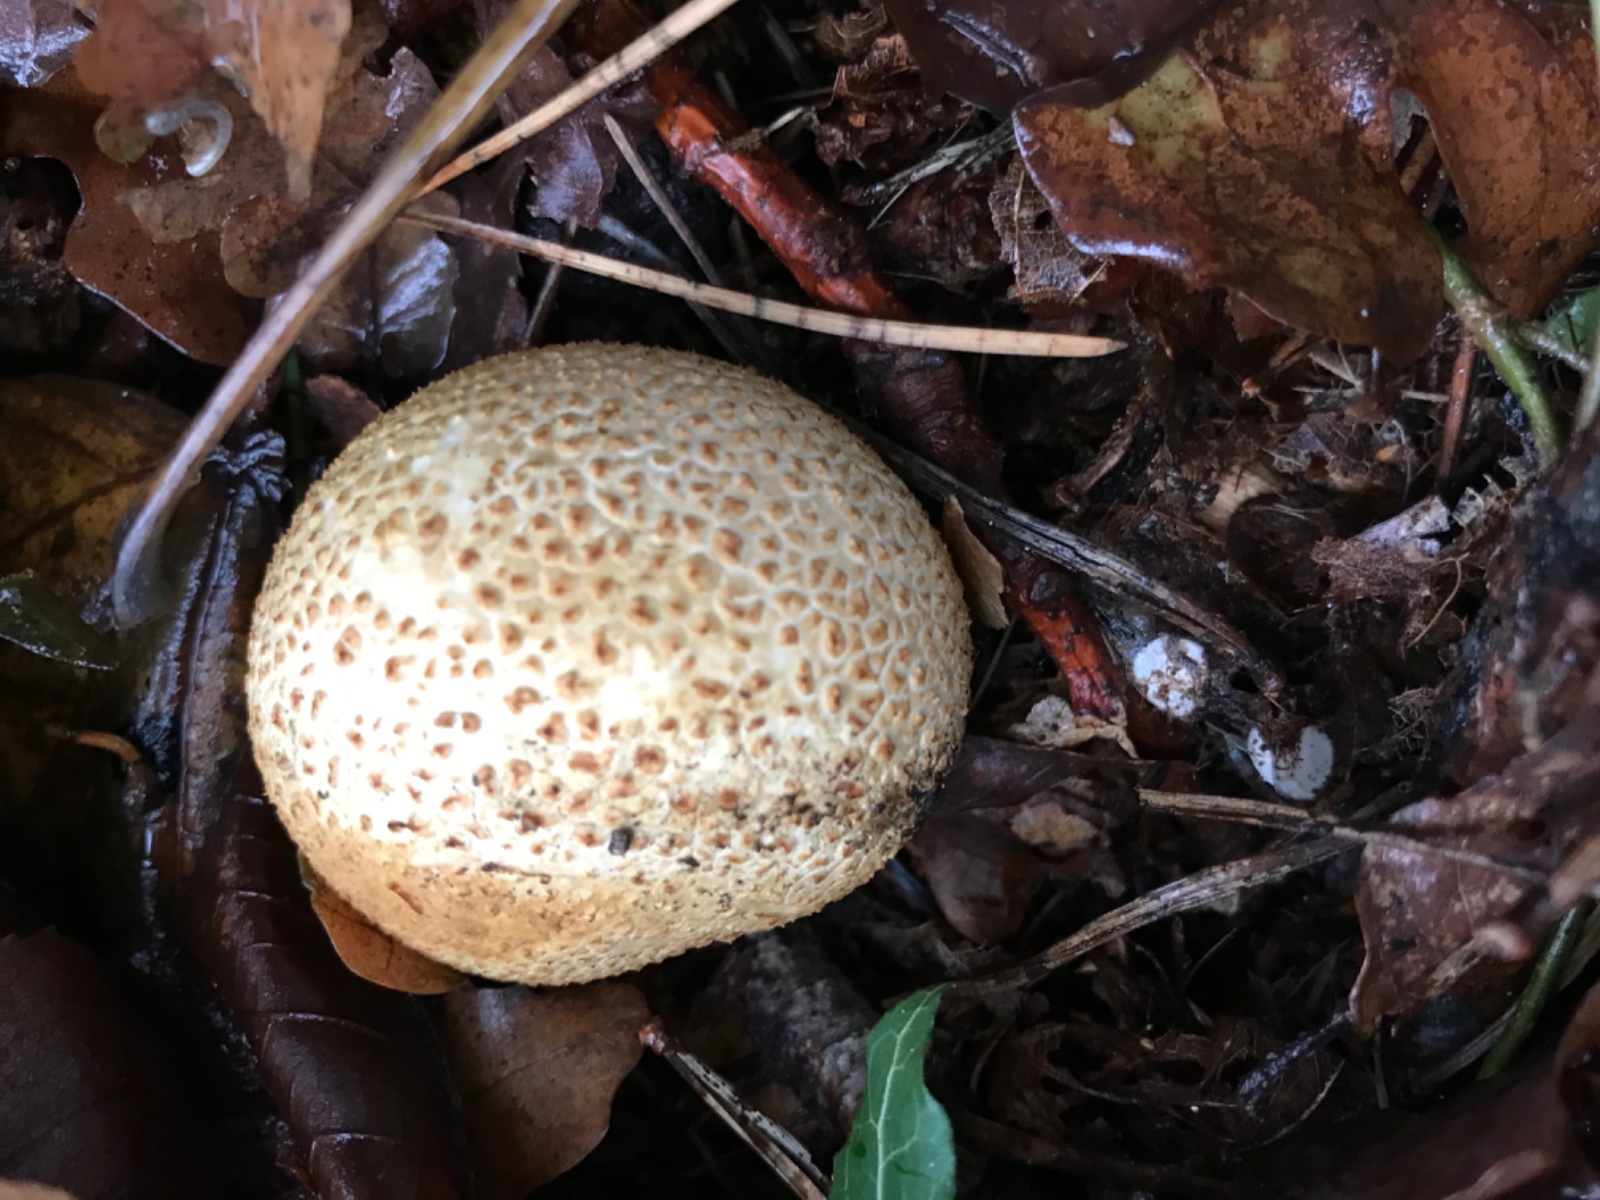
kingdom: Fungi
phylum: Basidiomycota
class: Agaricomycetes
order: Boletales
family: Sclerodermataceae
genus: Scleroderma
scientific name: Scleroderma citrinum
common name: almindelig bruskbold
